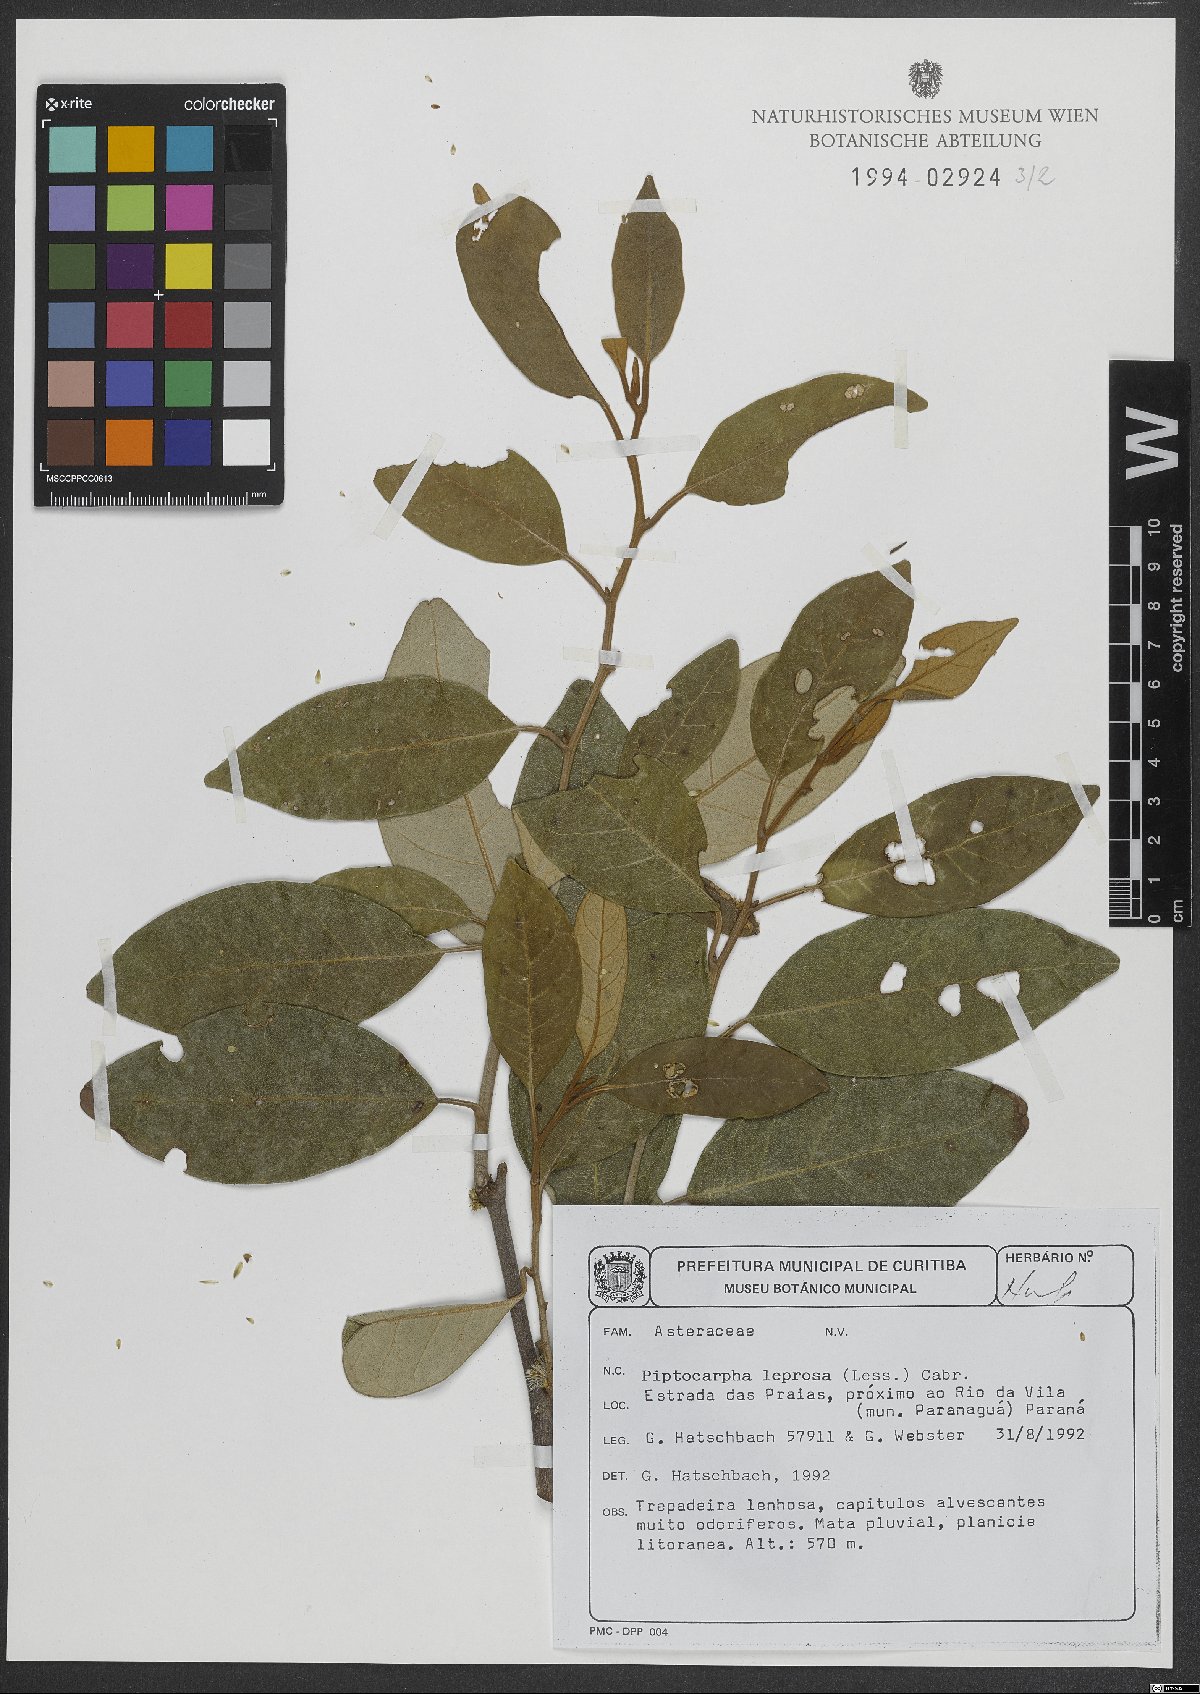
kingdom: Plantae
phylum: Tracheophyta
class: Magnoliopsida
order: Asterales
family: Asteraceae
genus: Piptocarpha
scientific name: Piptocarpha leprosa
